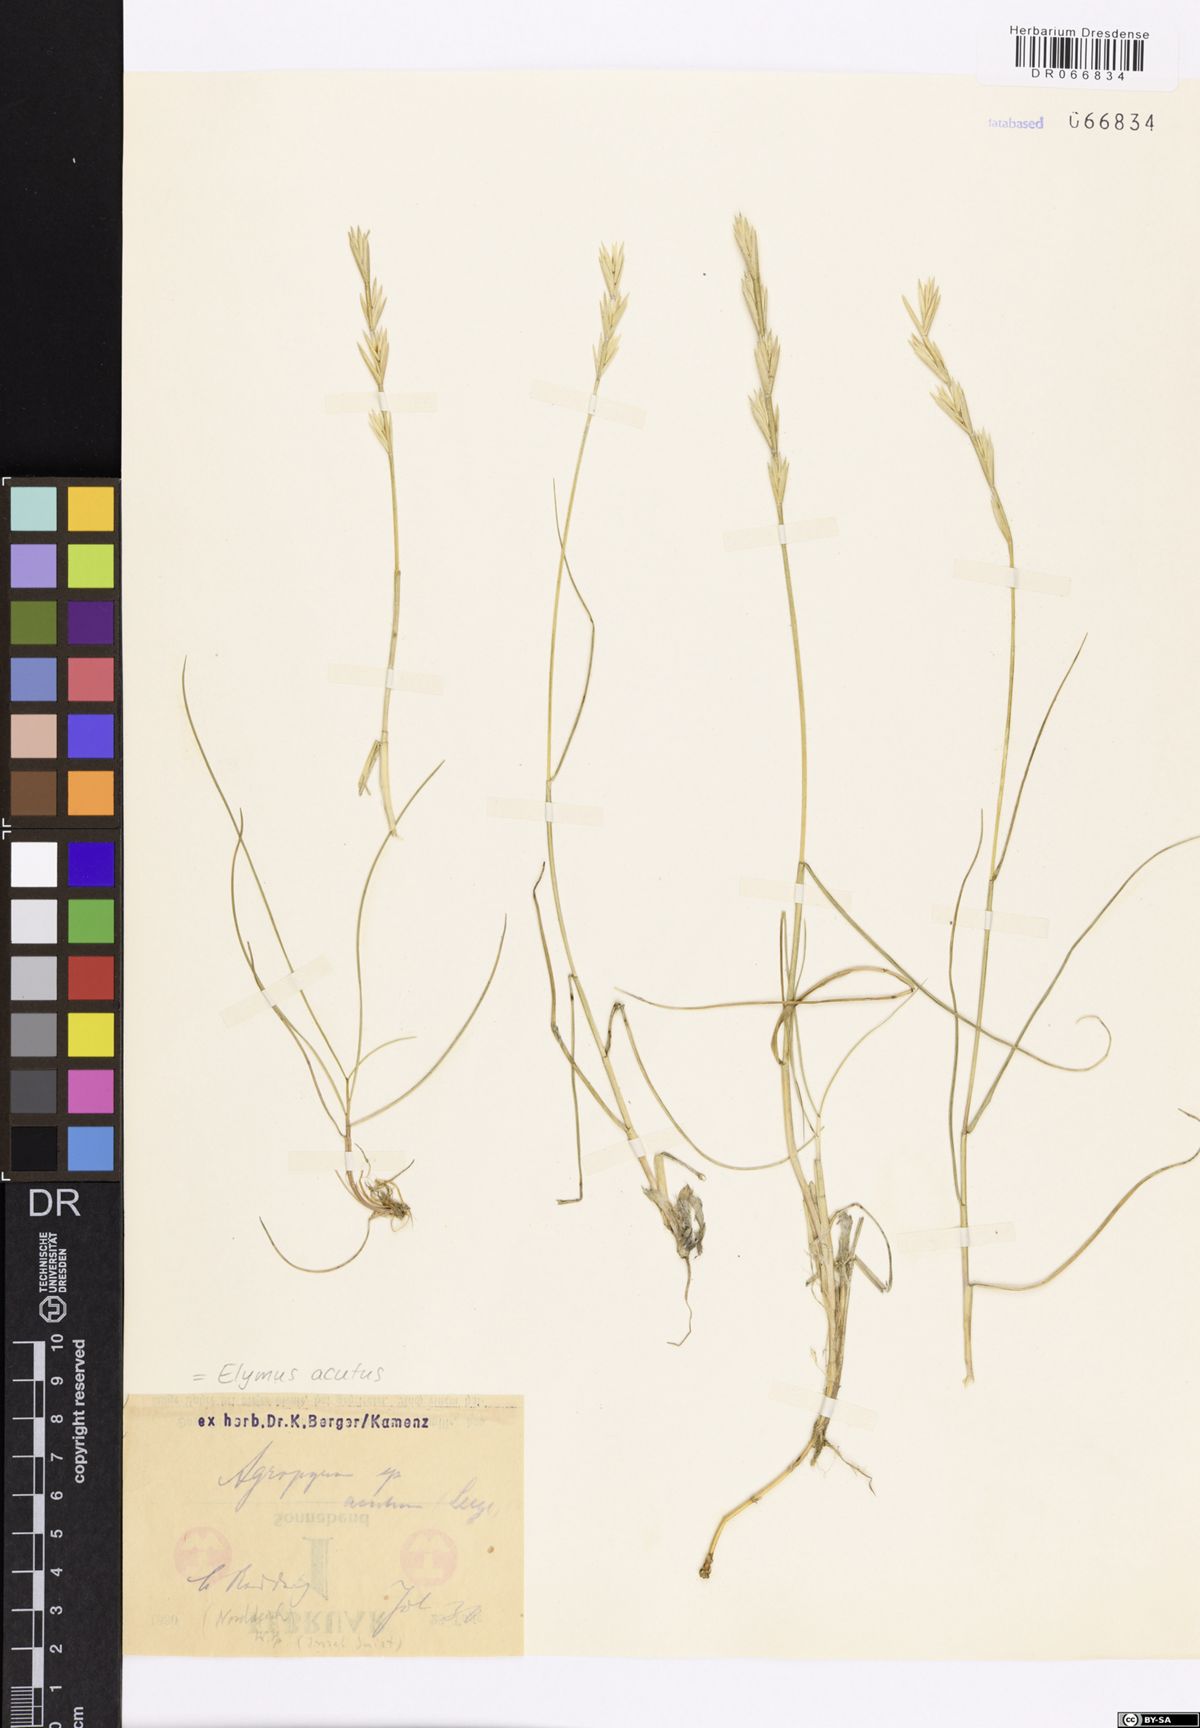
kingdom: Plantae
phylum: Tracheophyta
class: Liliopsida
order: Poales
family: Poaceae
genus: Thinopyrum
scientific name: Thinopyrum acutum
